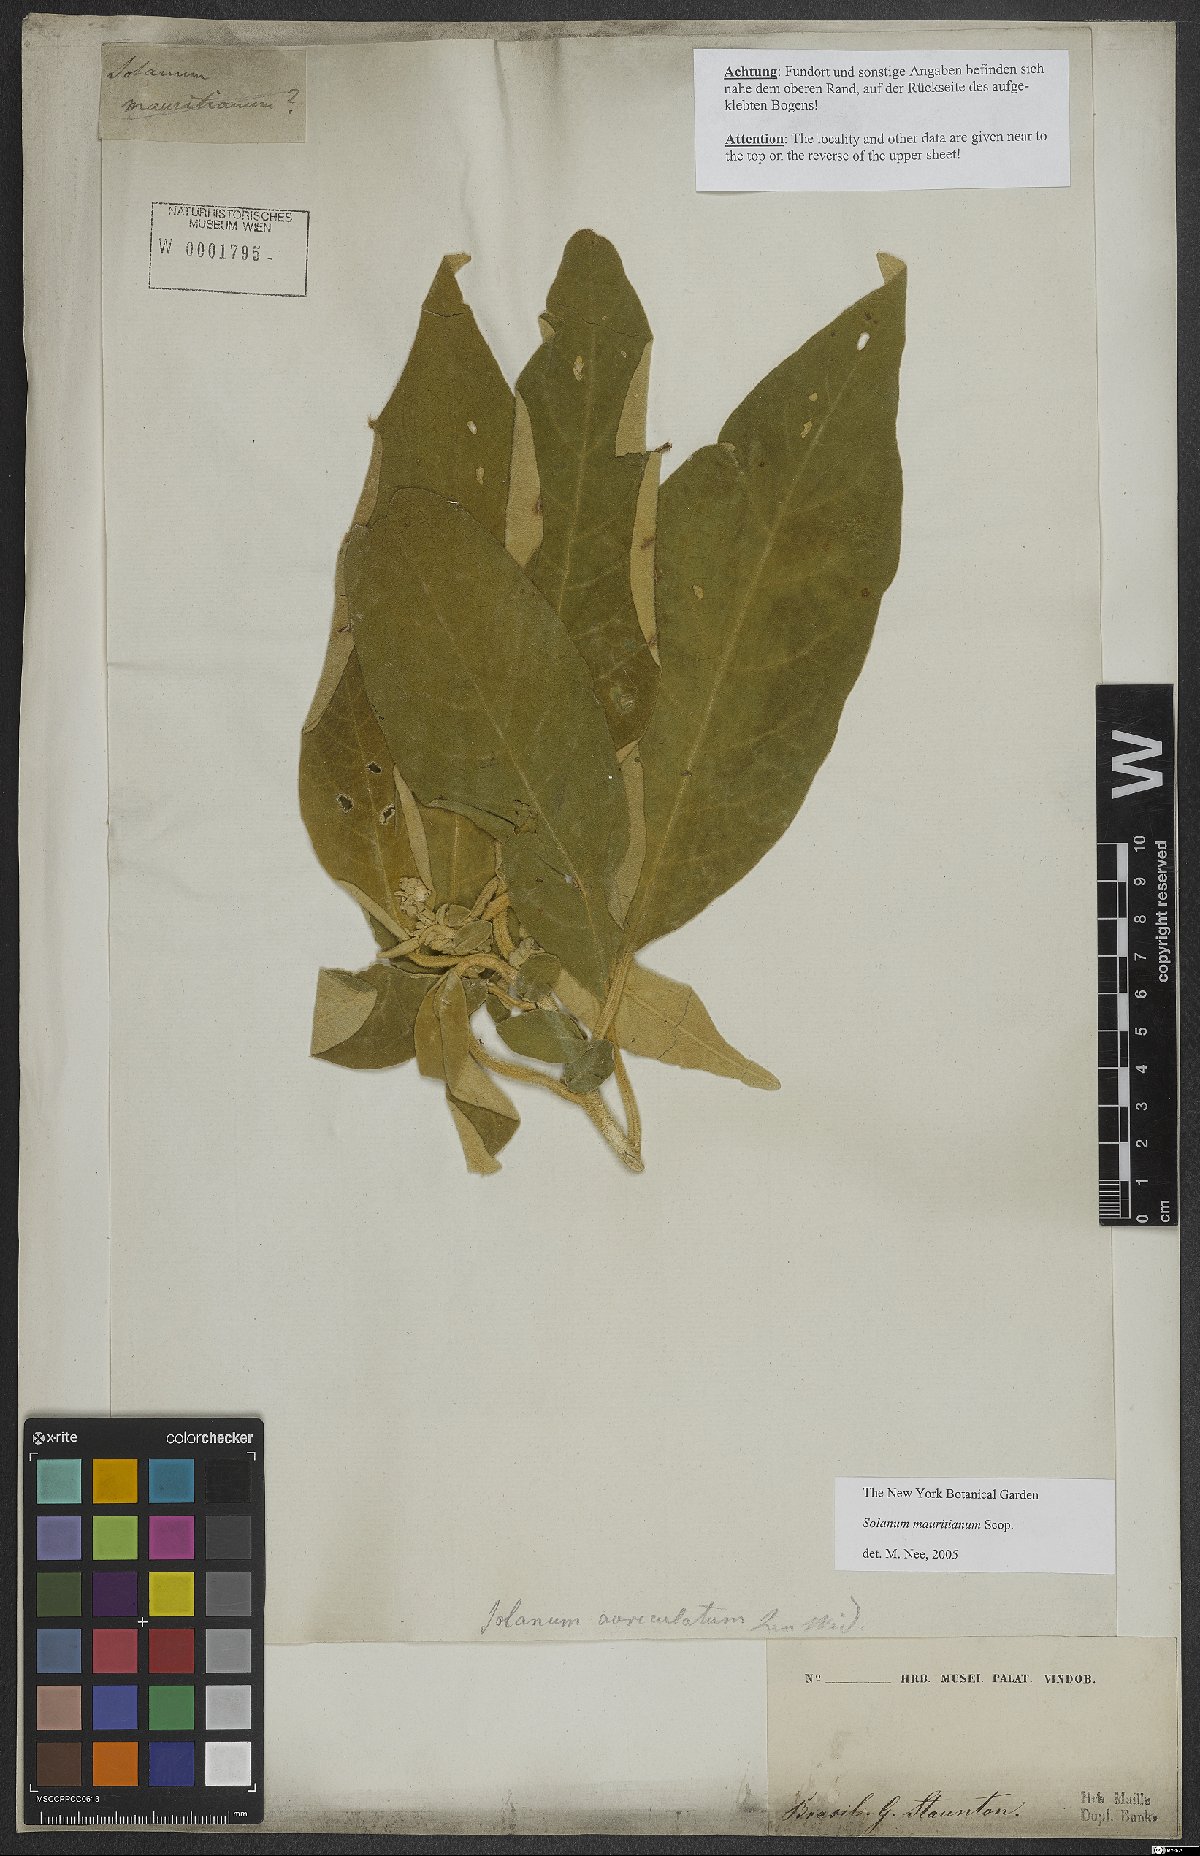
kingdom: Plantae
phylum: Tracheophyta
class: Magnoliopsida
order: Solanales
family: Solanaceae
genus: Solanum
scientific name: Solanum mauritianum
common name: Earleaf nightshade
